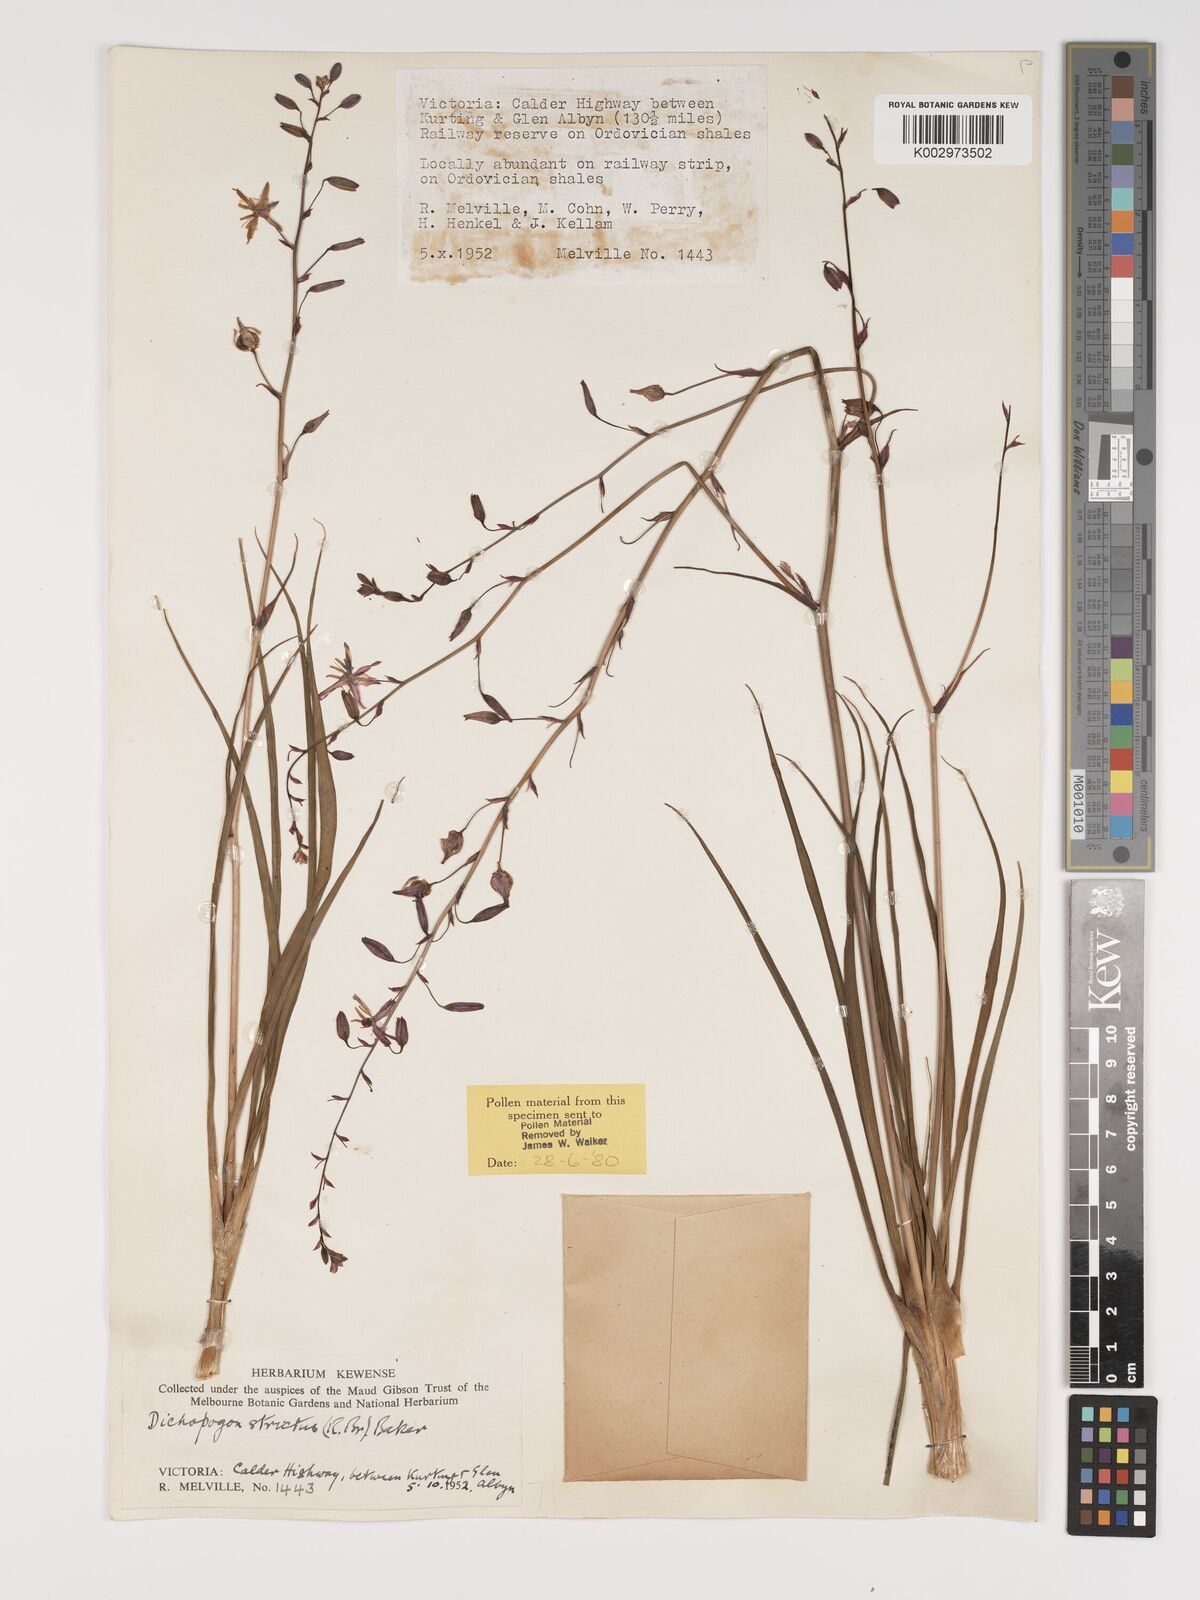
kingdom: Plantae
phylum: Tracheophyta
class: Liliopsida
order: Asparagales
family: Asparagaceae
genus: Arthropodium
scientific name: Arthropodium strictum
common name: Chocolate-lily
